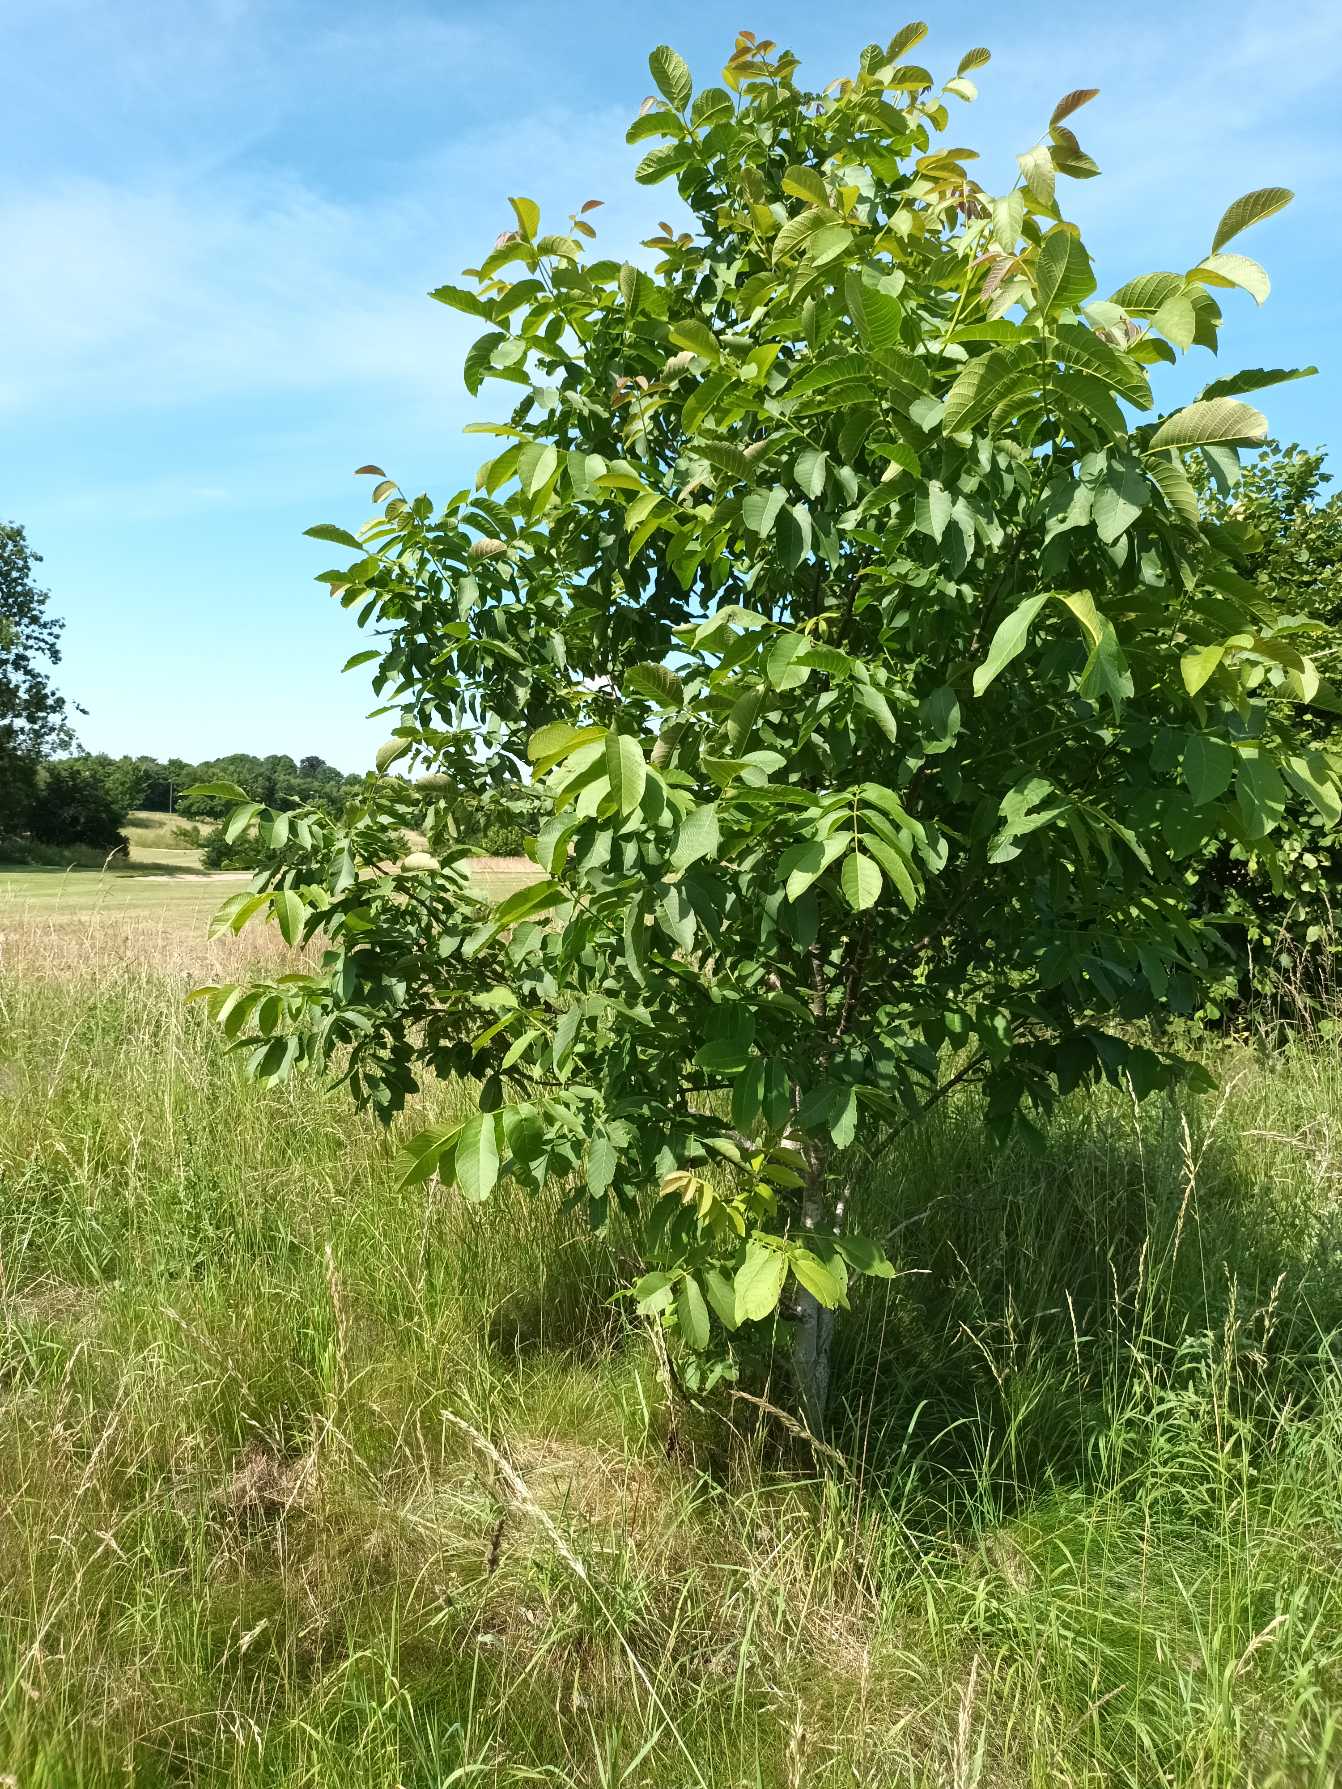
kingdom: Plantae
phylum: Tracheophyta
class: Magnoliopsida
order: Fagales
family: Juglandaceae
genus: Juglans
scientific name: Juglans regia
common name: Almindelig valnød
